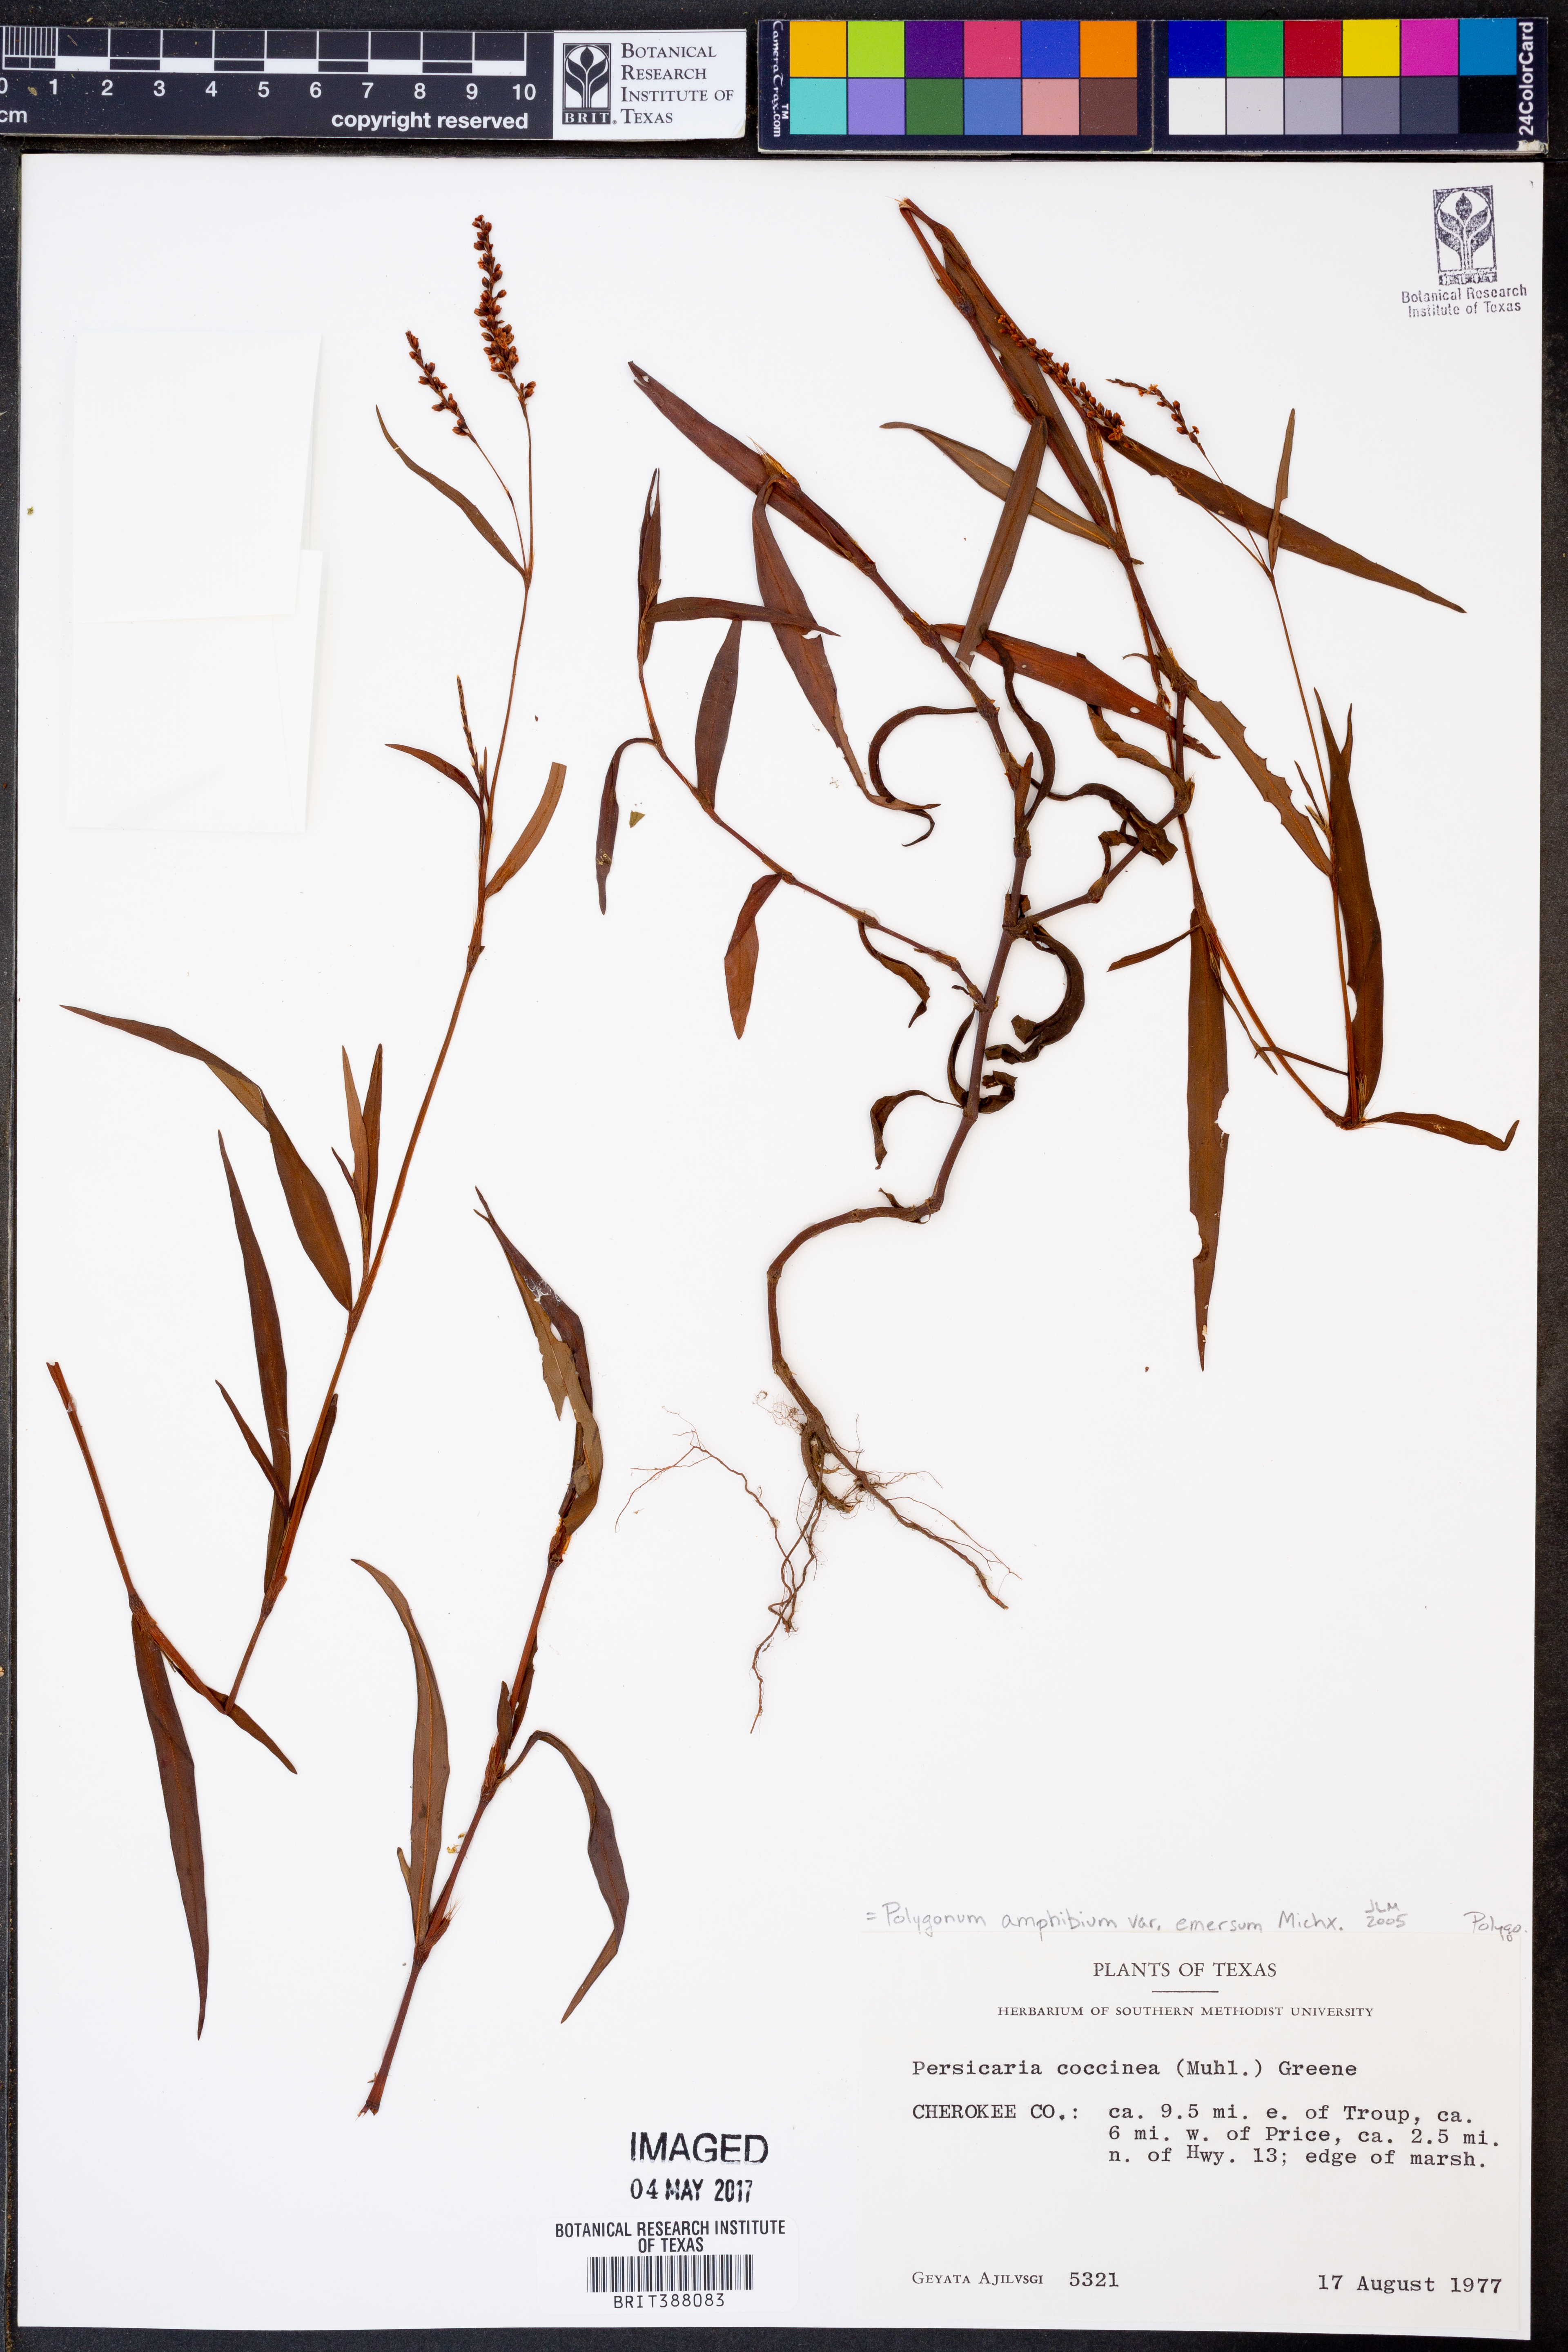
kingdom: Plantae
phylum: Tracheophyta
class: Magnoliopsida
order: Caryophyllales
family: Polygonaceae
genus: Persicaria
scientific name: Persicaria amphibia
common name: Amphibious bistort
